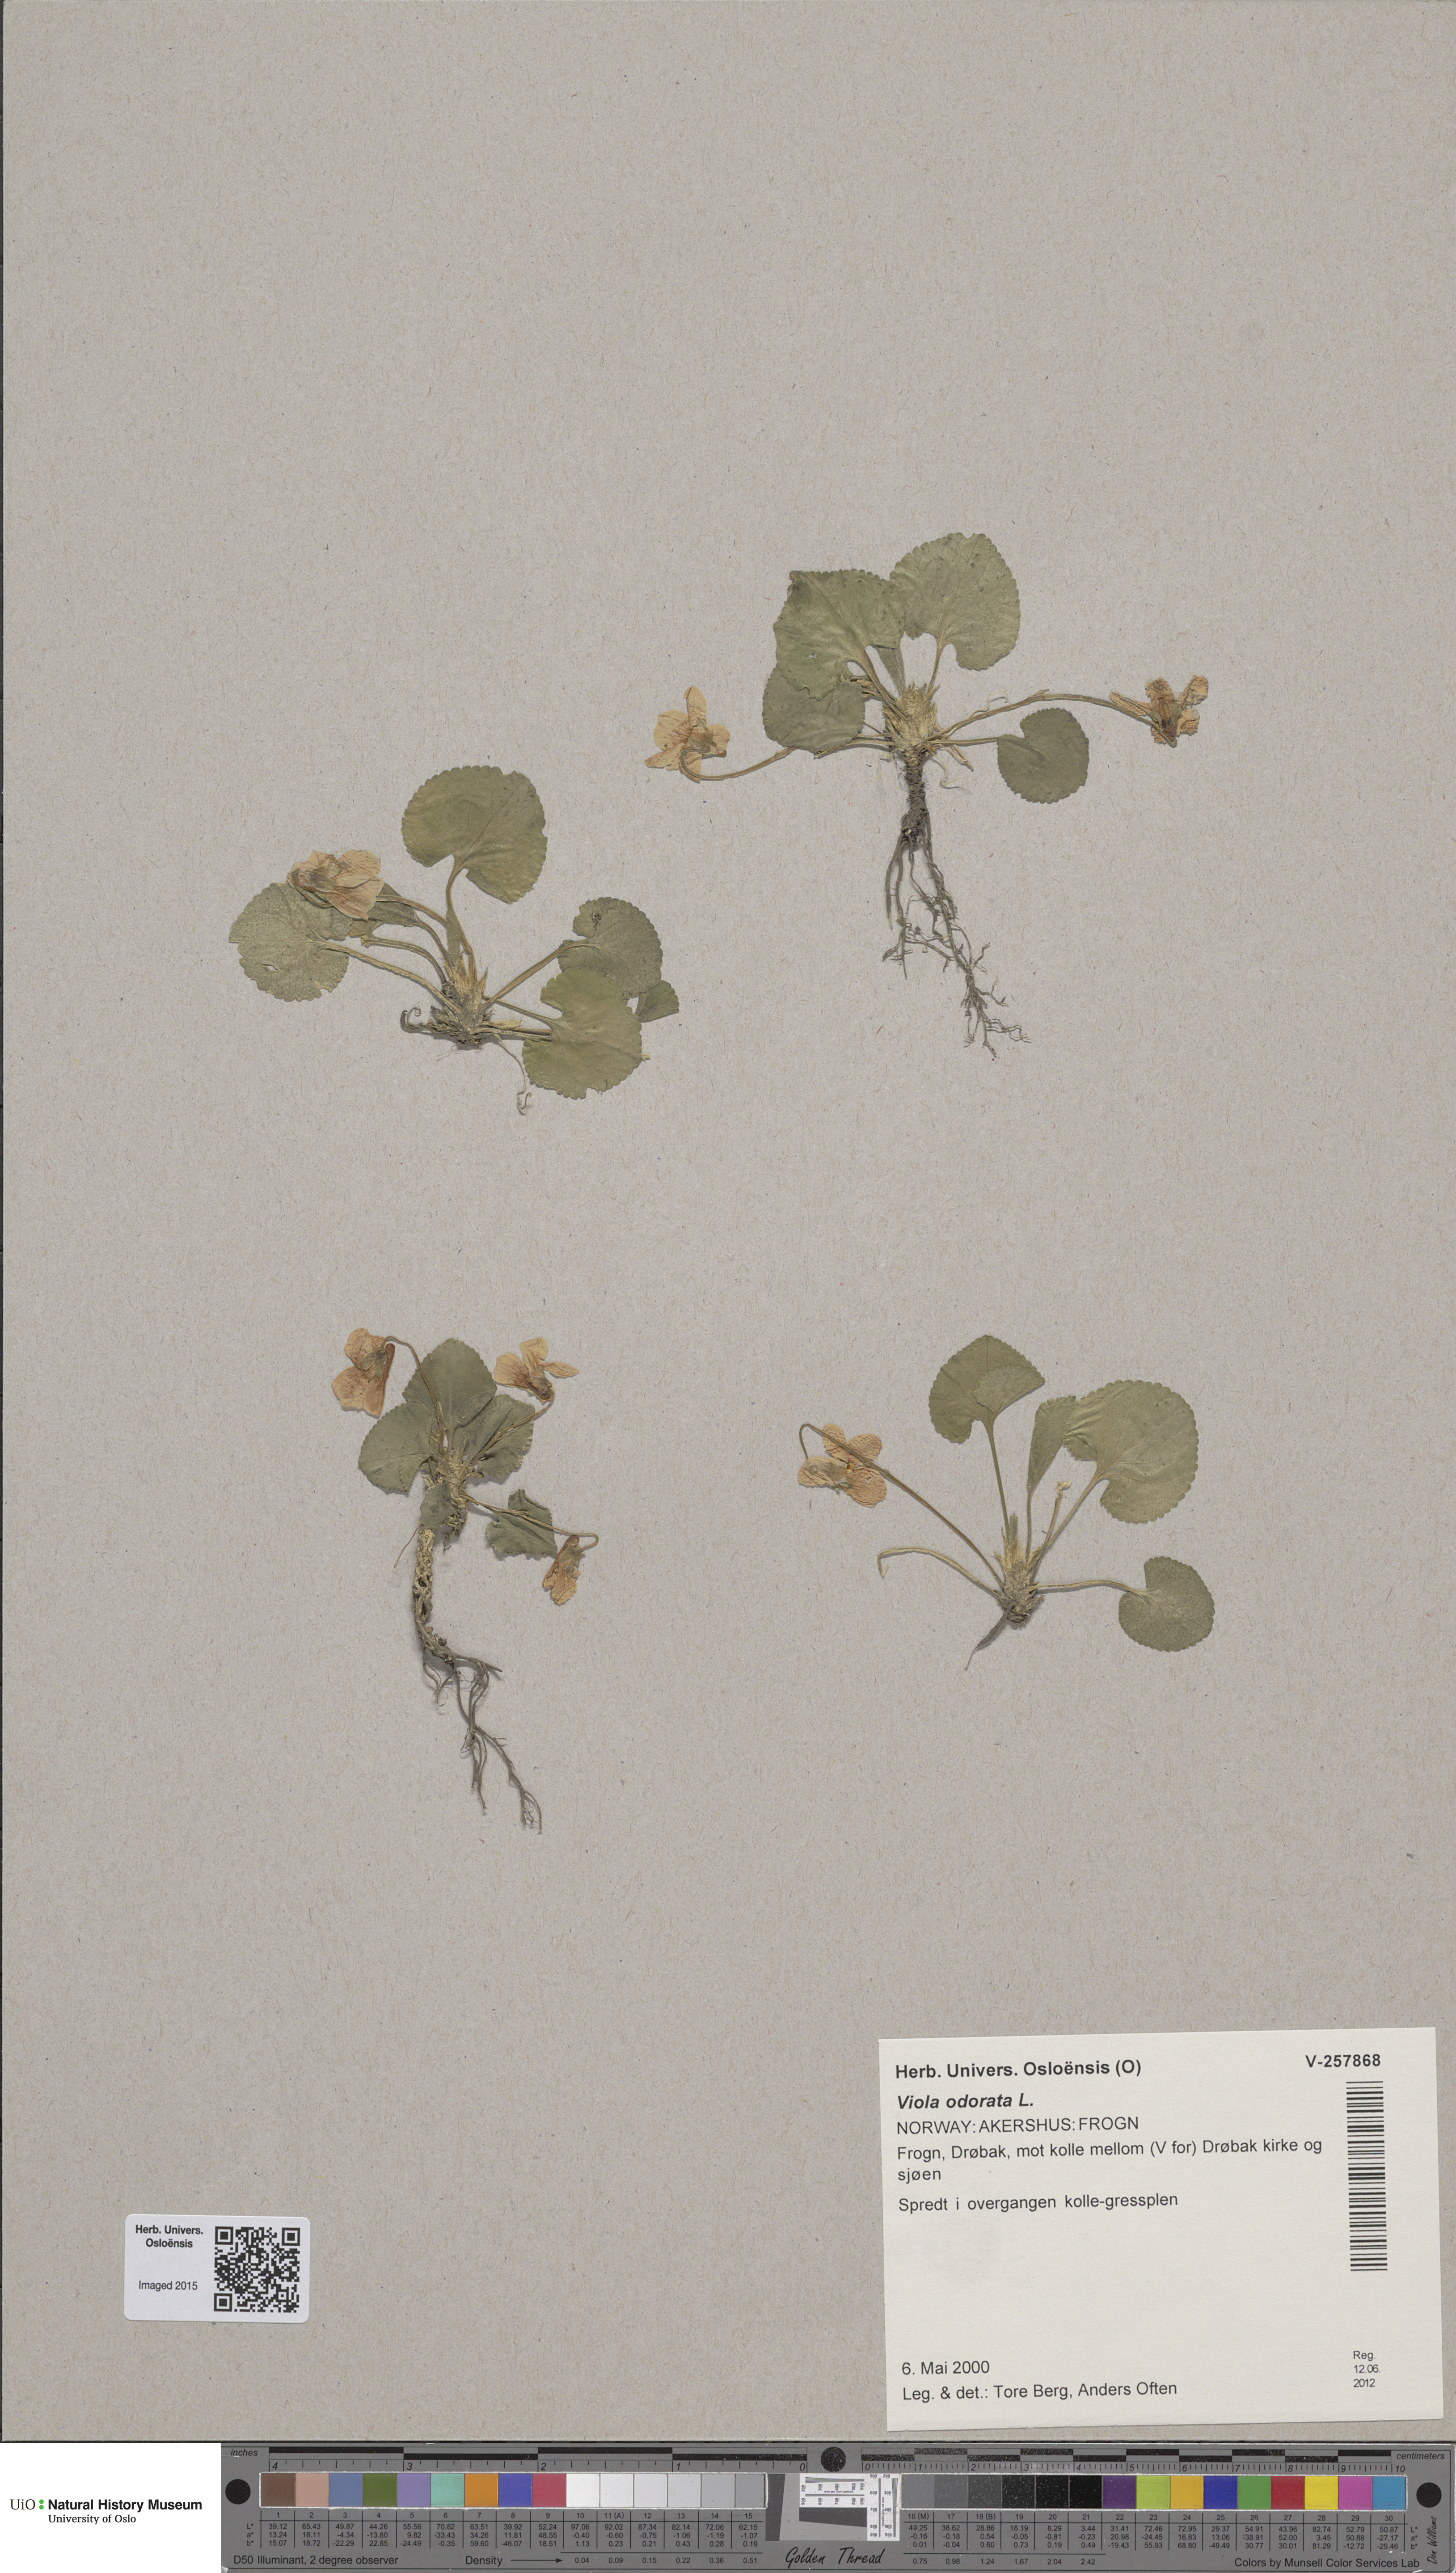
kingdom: Plantae
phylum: Tracheophyta
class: Magnoliopsida
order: Malpighiales
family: Violaceae
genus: Viola
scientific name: Viola odorata
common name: Sweet violet
